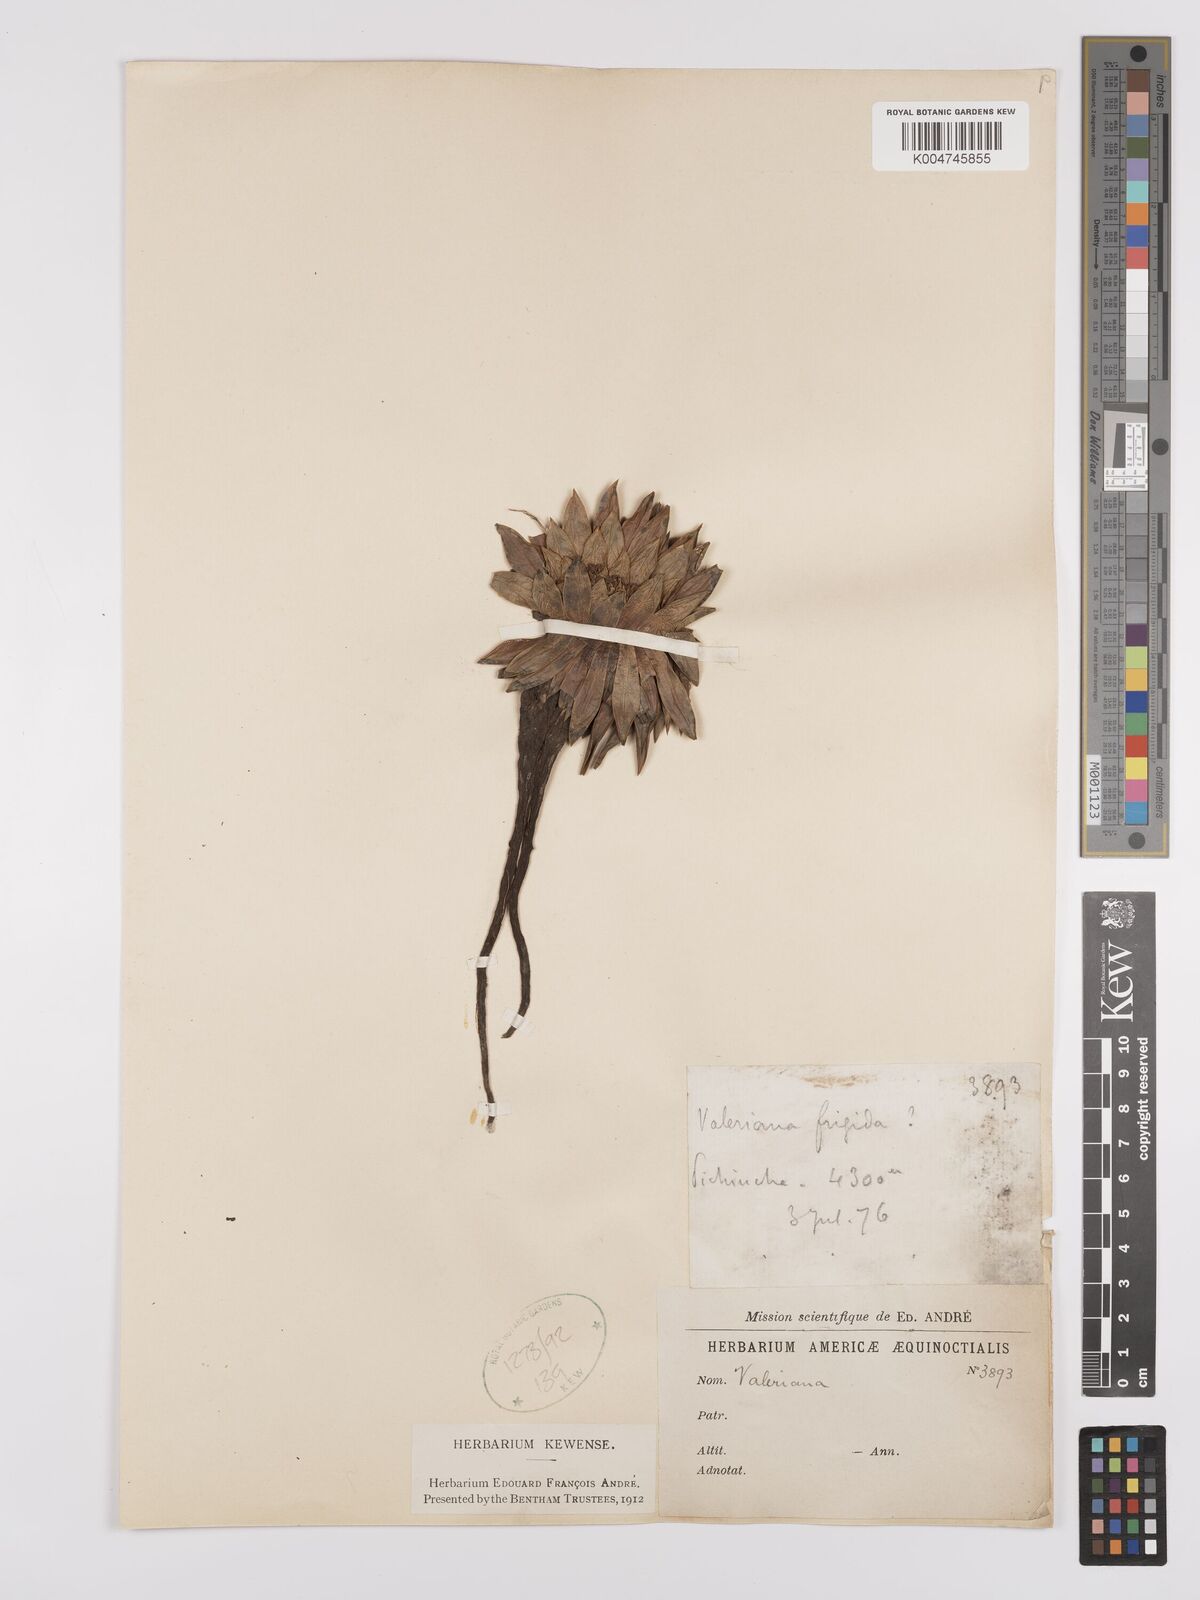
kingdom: Plantae
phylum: Tracheophyta
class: Magnoliopsida
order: Dipsacales
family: Caprifoliaceae
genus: Valeriana
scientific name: Valeriana rigida
